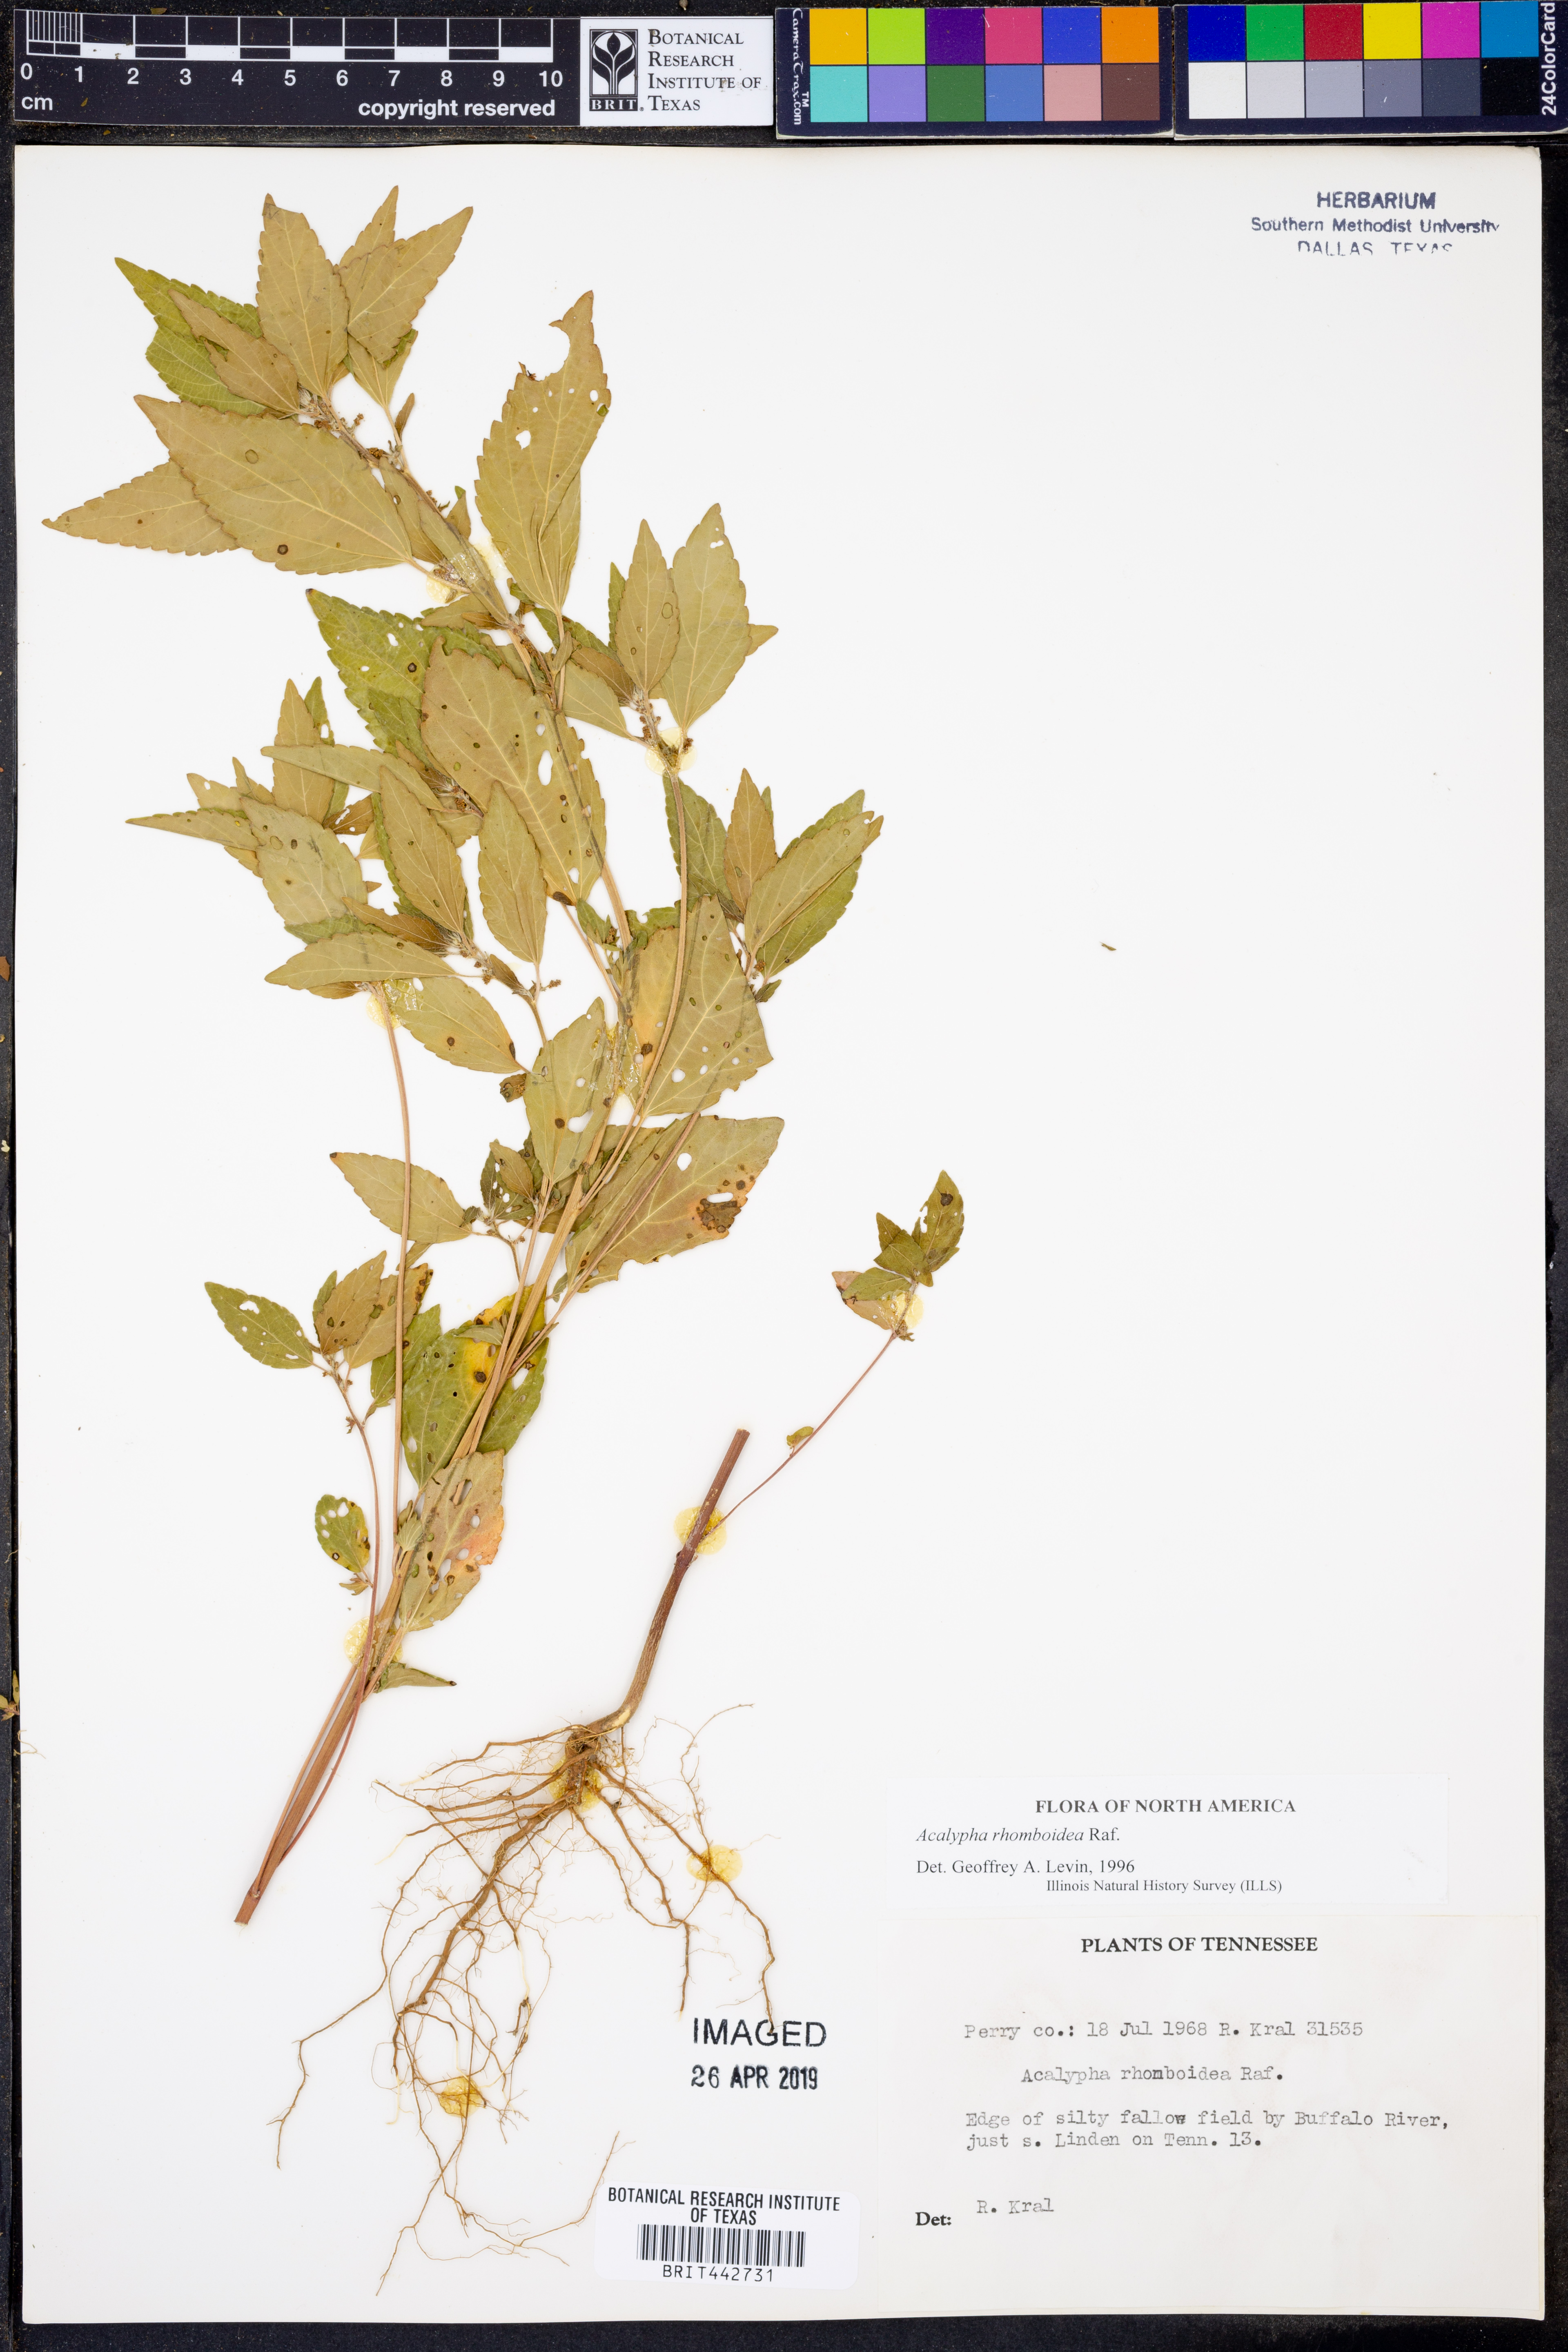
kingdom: Plantae
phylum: Tracheophyta
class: Magnoliopsida
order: Malpighiales
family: Euphorbiaceae
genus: Acalypha
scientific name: Acalypha rhomboidea
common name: Rhombic copperleaf
